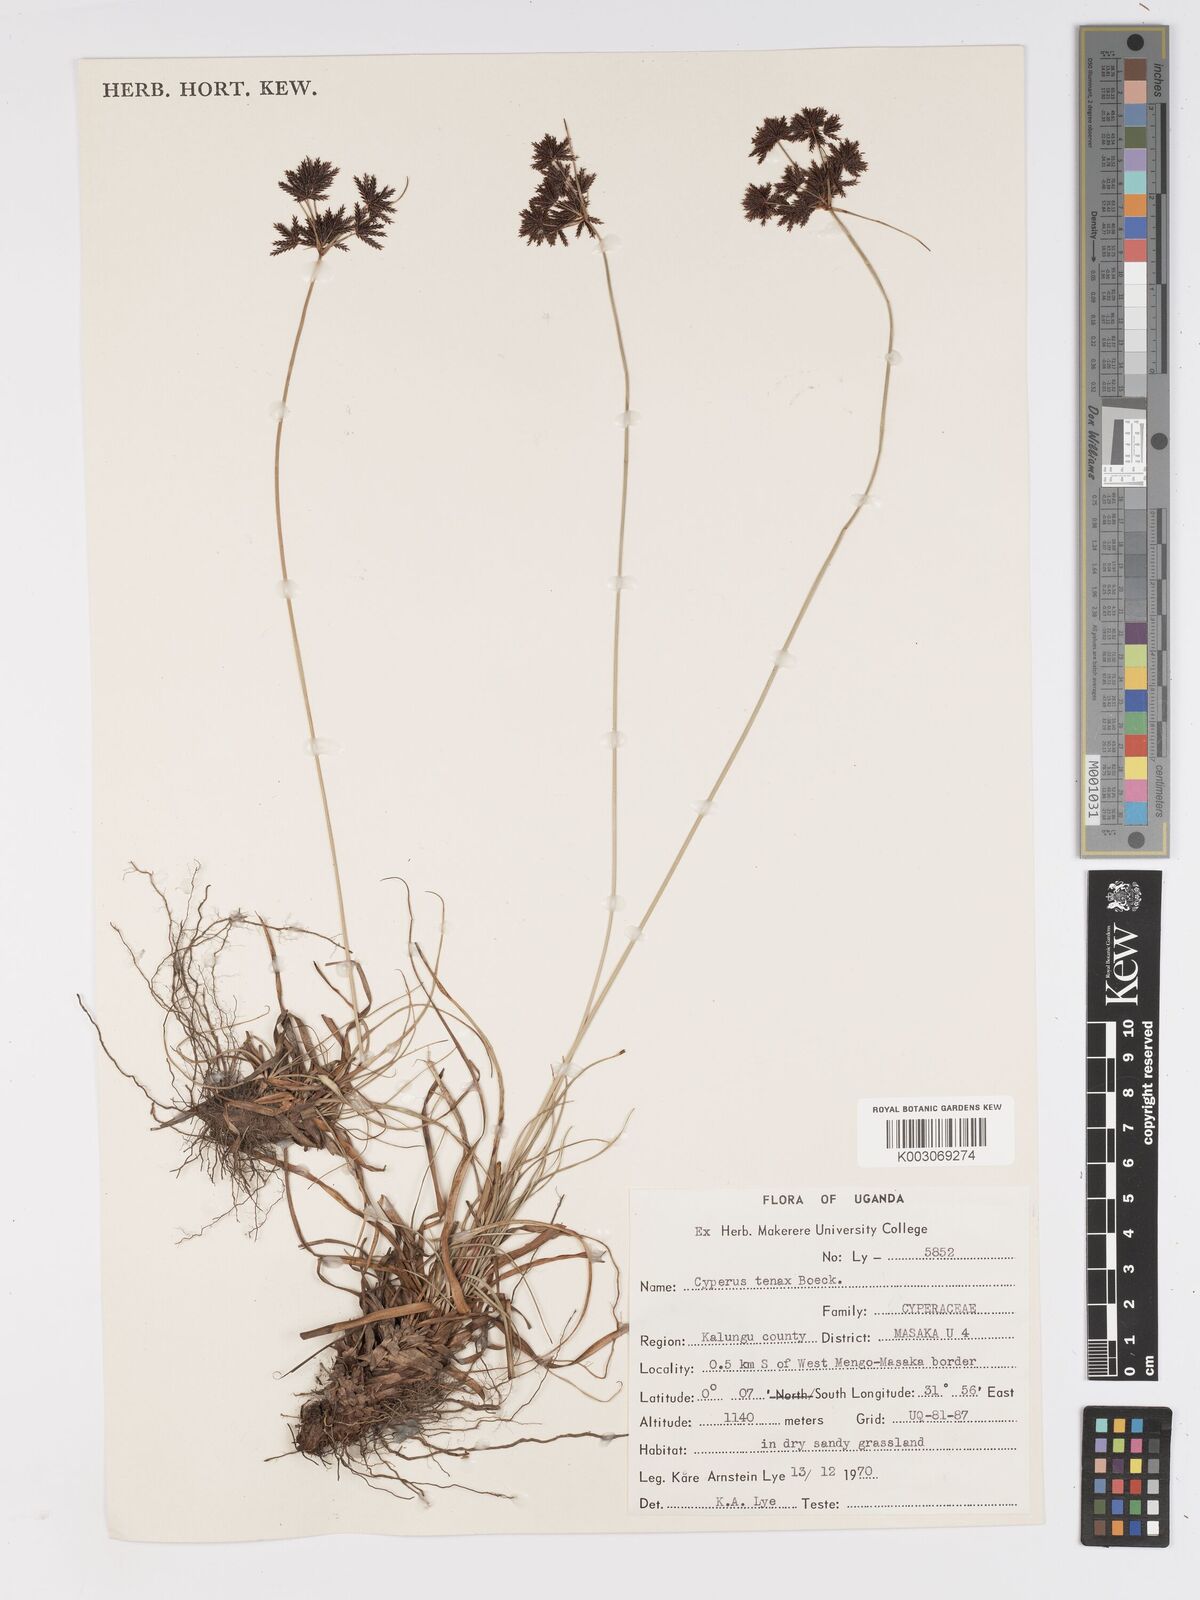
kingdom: Plantae
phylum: Tracheophyta
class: Liliopsida
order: Poales
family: Cyperaceae
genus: Cyperus
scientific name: Cyperus tenax
